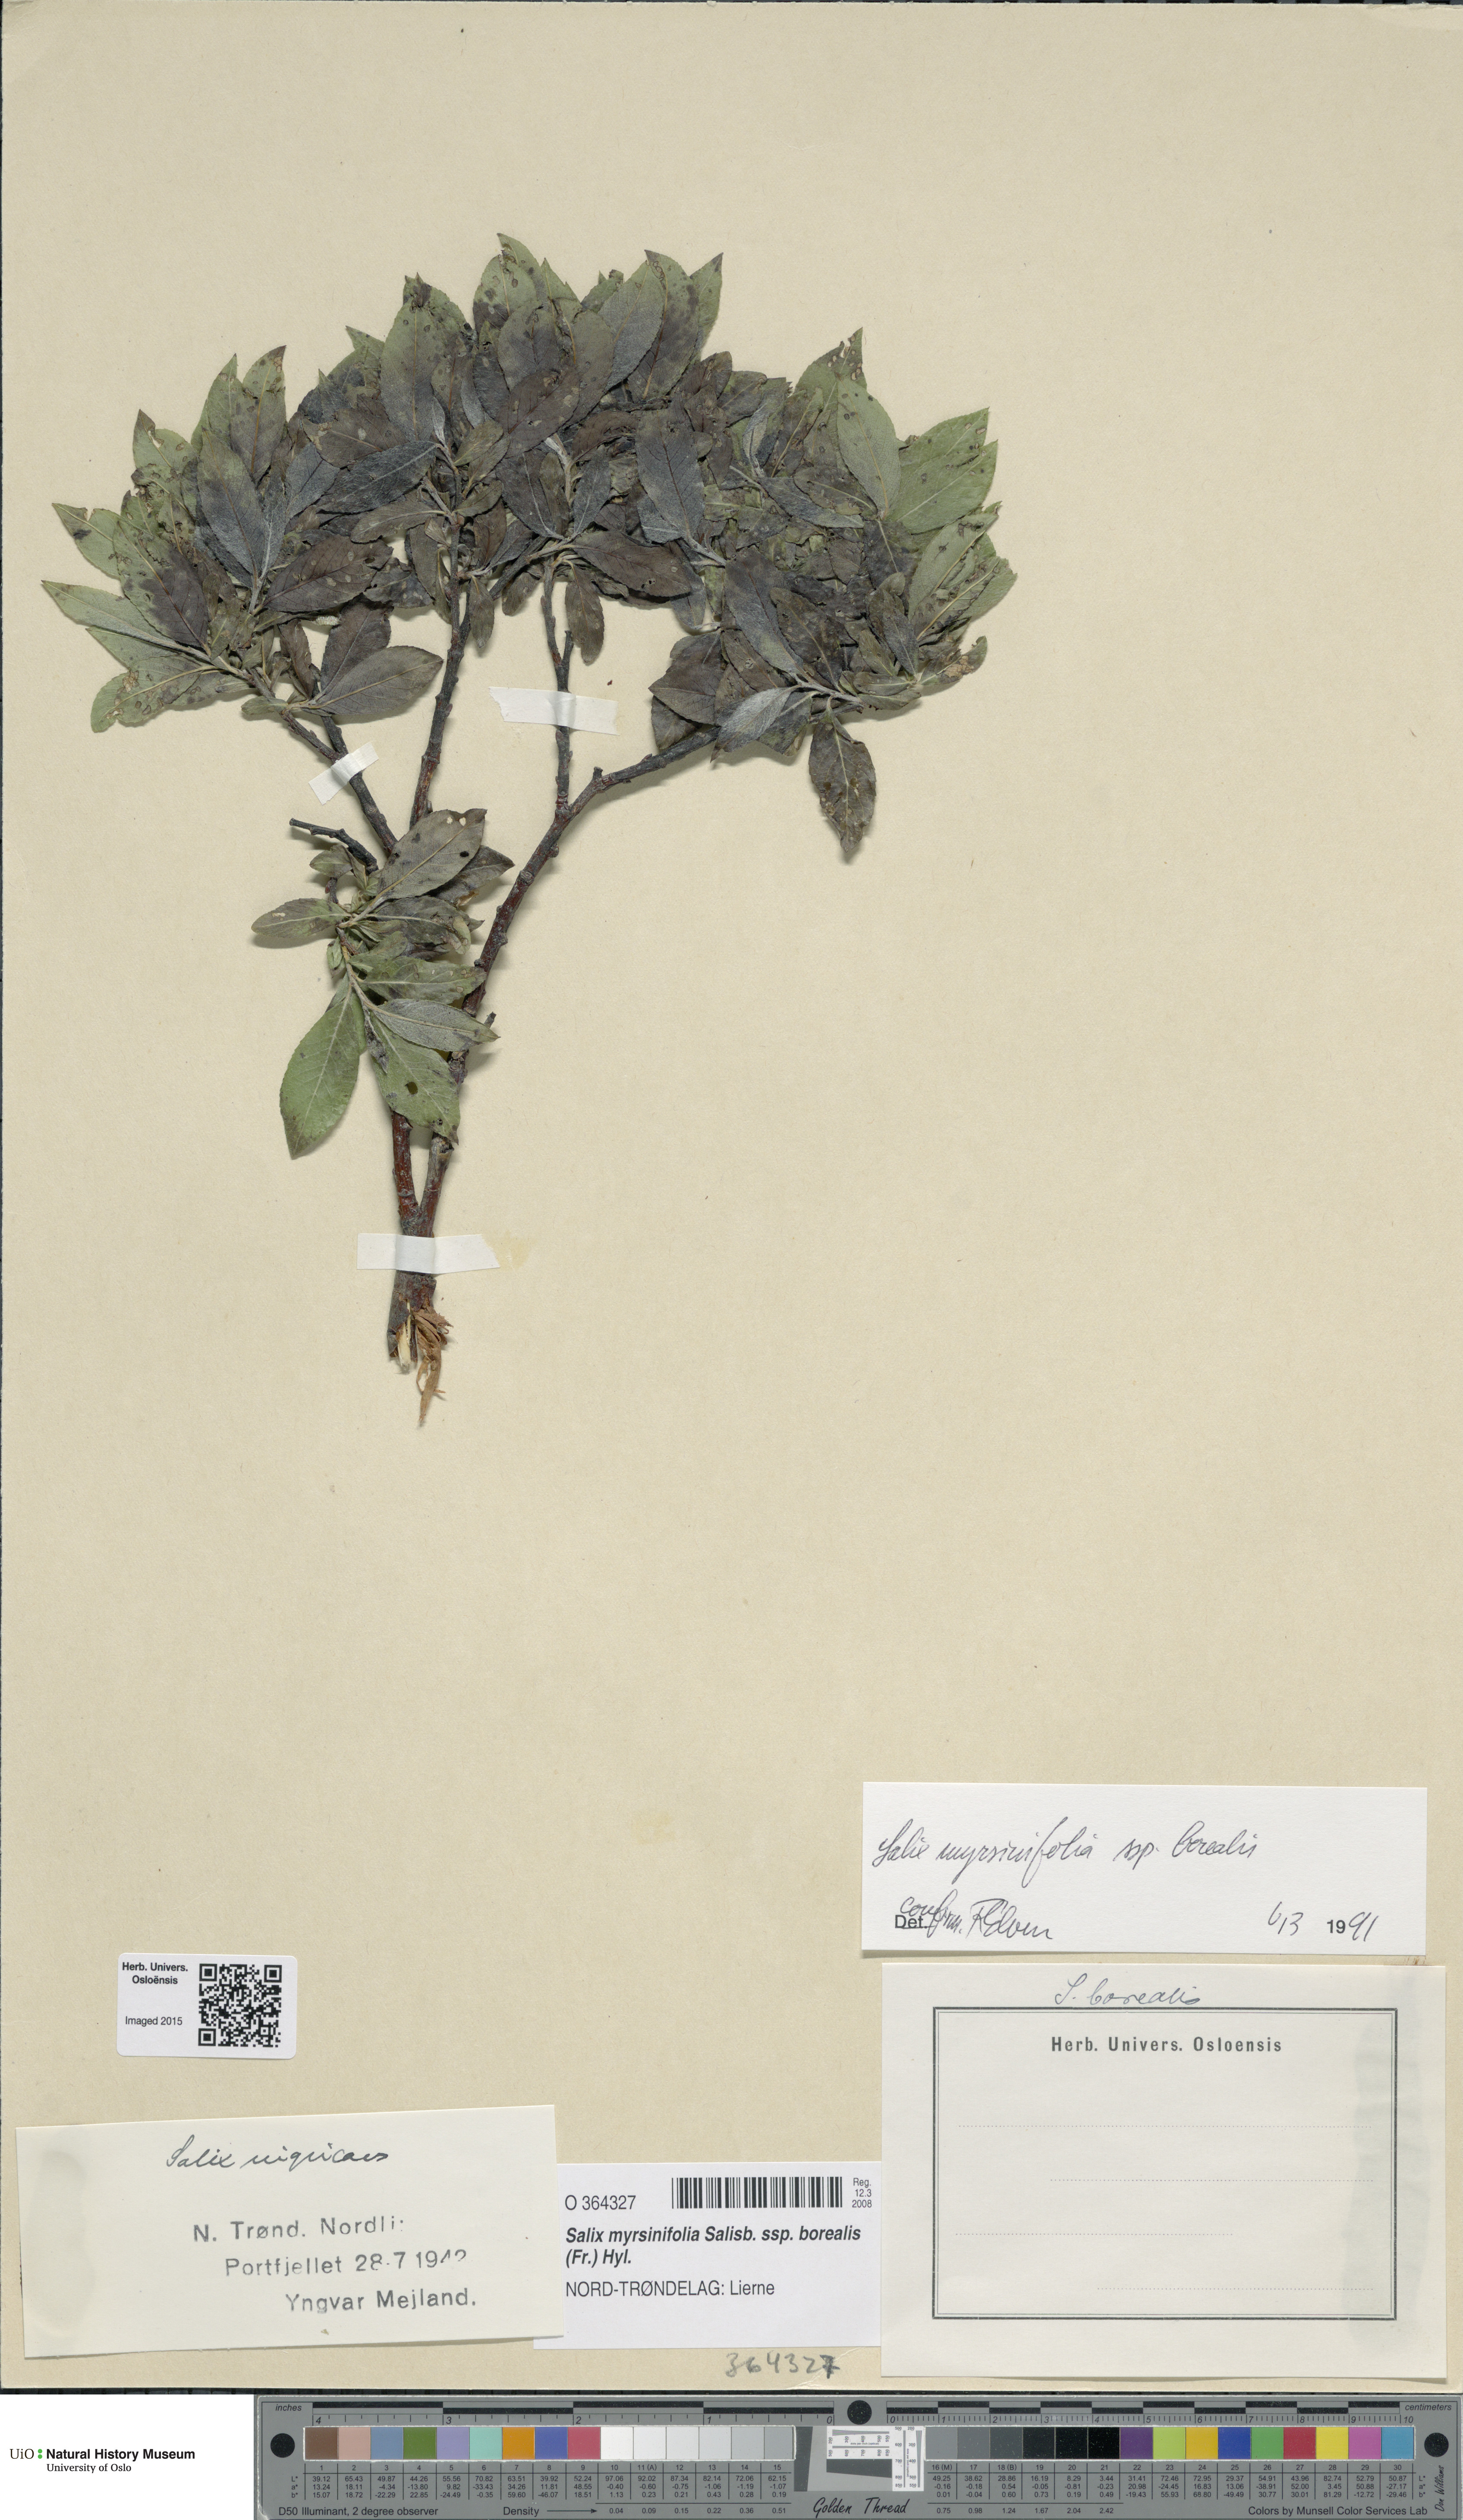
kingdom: Plantae
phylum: Tracheophyta
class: Magnoliopsida
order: Malpighiales
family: Salicaceae
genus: Salix
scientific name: Salix myrsinifolia
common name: Dark-leaved willow
